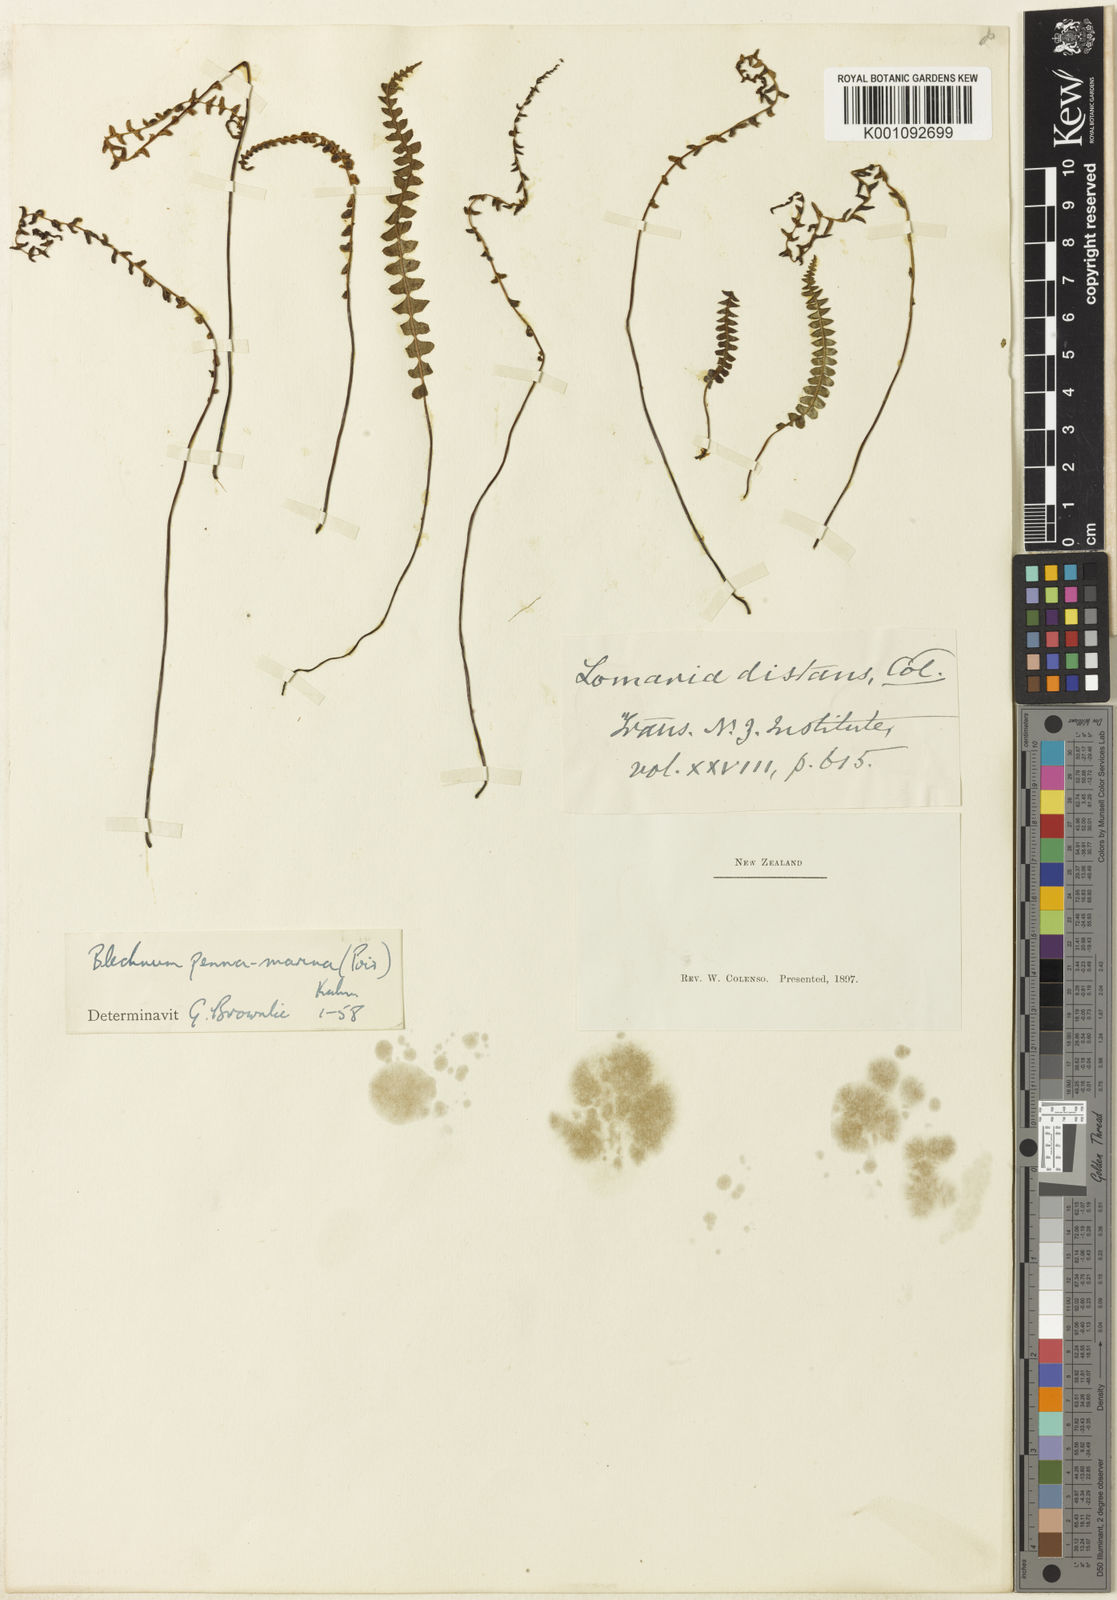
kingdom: Plantae
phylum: Tracheophyta
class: Polypodiopsida
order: Polypodiales
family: Blechnaceae
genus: Austroblechnum
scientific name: Austroblechnum penna-marina
